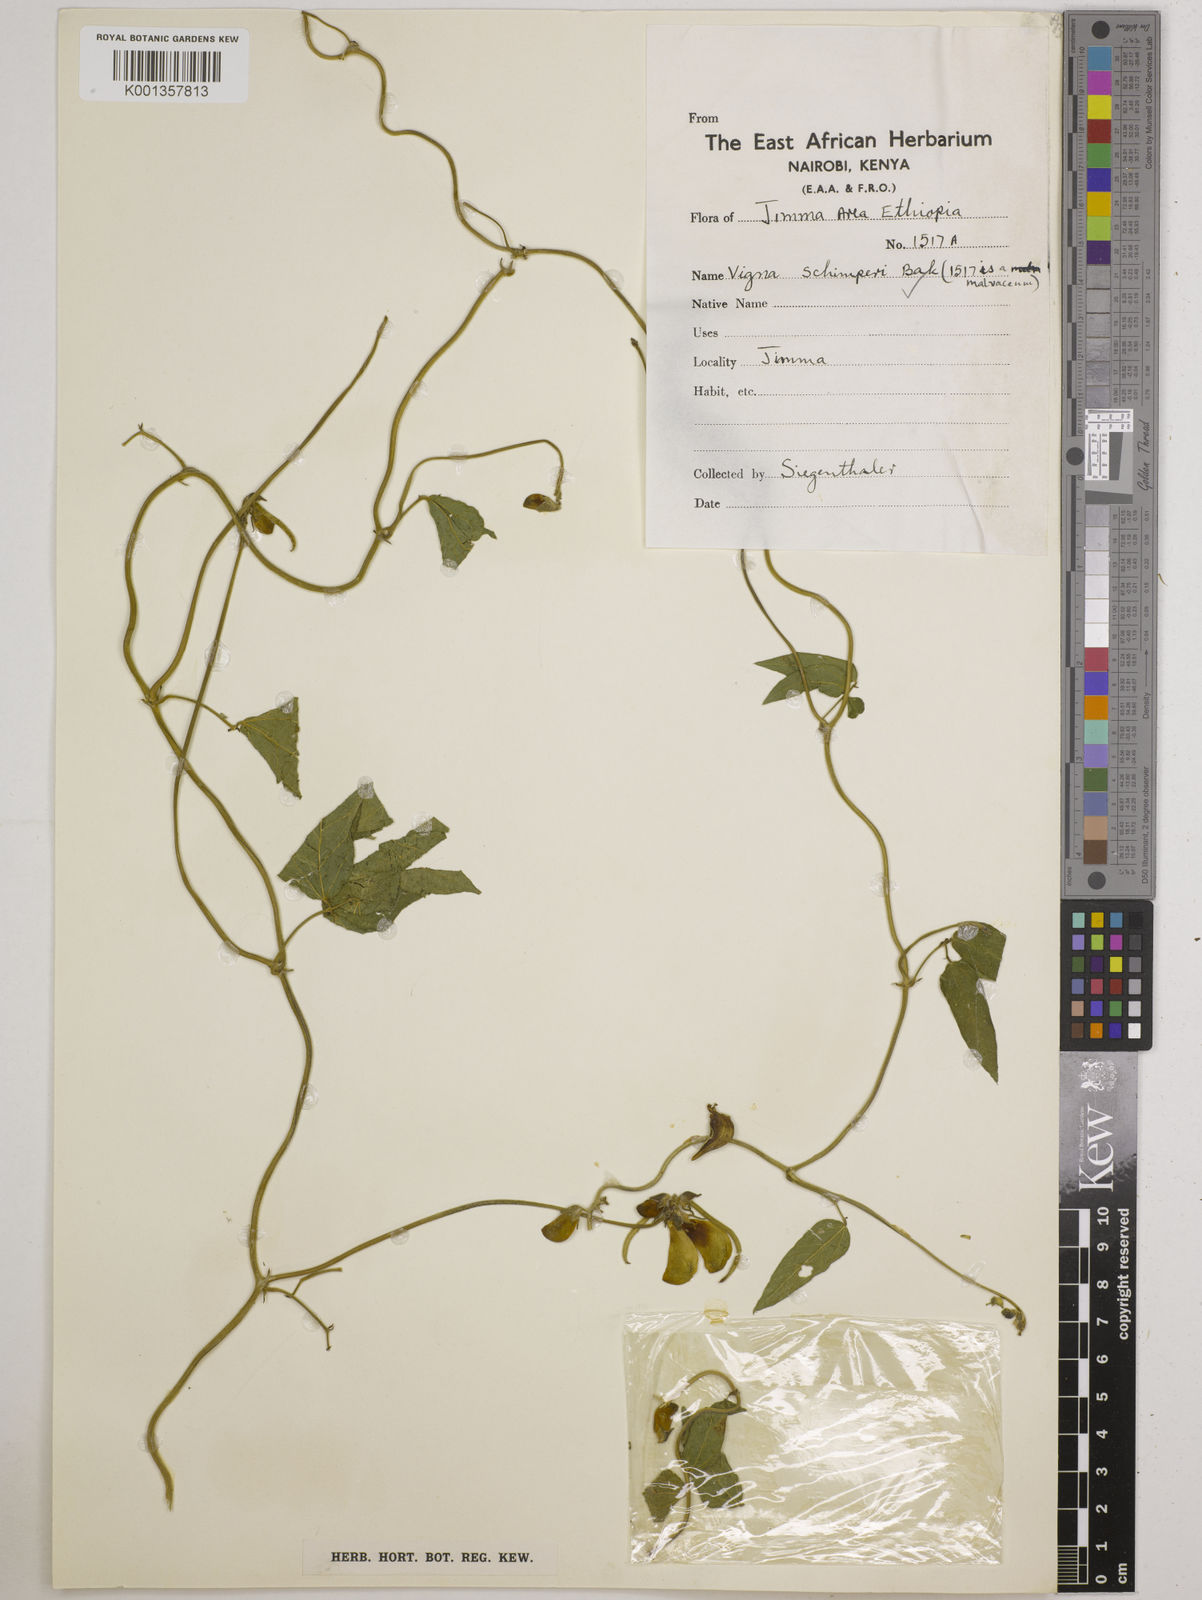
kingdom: Plantae
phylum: Tracheophyta
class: Magnoliopsida
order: Fabales
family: Fabaceae
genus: Vigna
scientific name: Vigna schimperi
